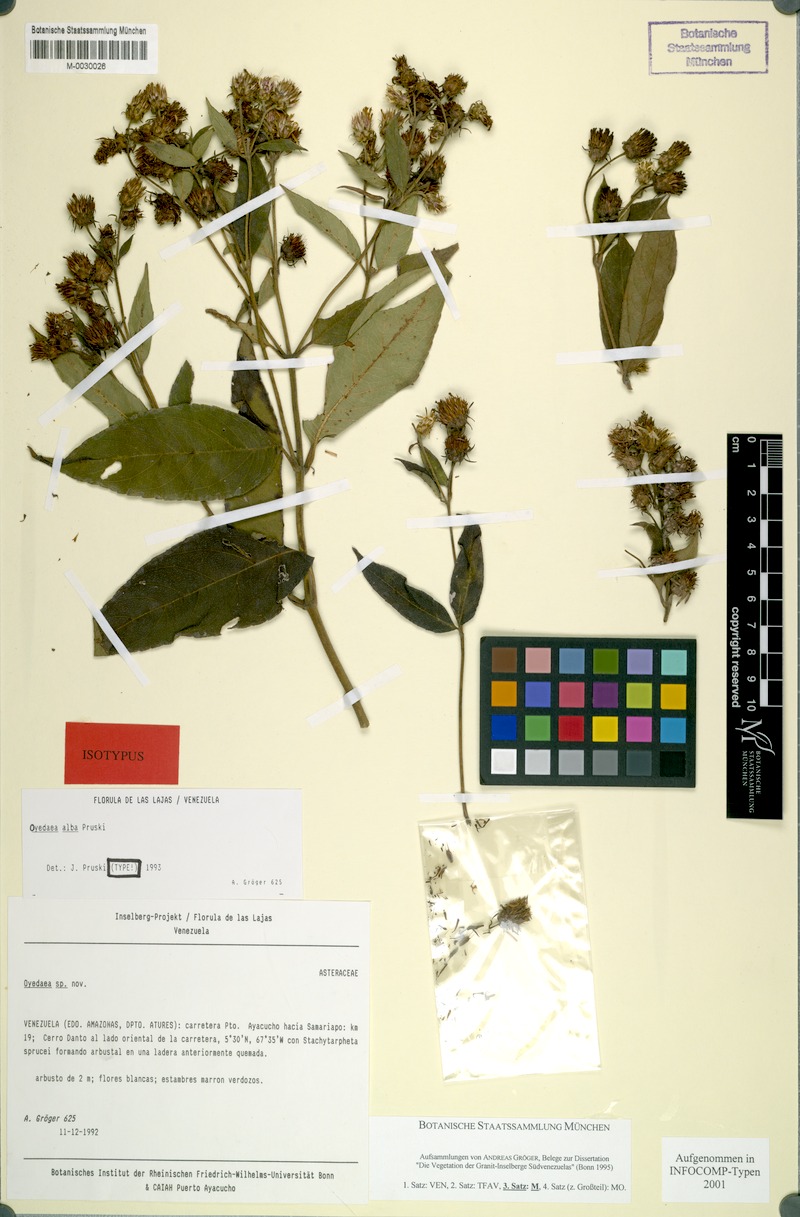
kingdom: Plantae
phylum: Tracheophyta
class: Magnoliopsida
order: Asterales
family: Asteraceae
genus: Oyedaea
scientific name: Oyedaea wurdackii
